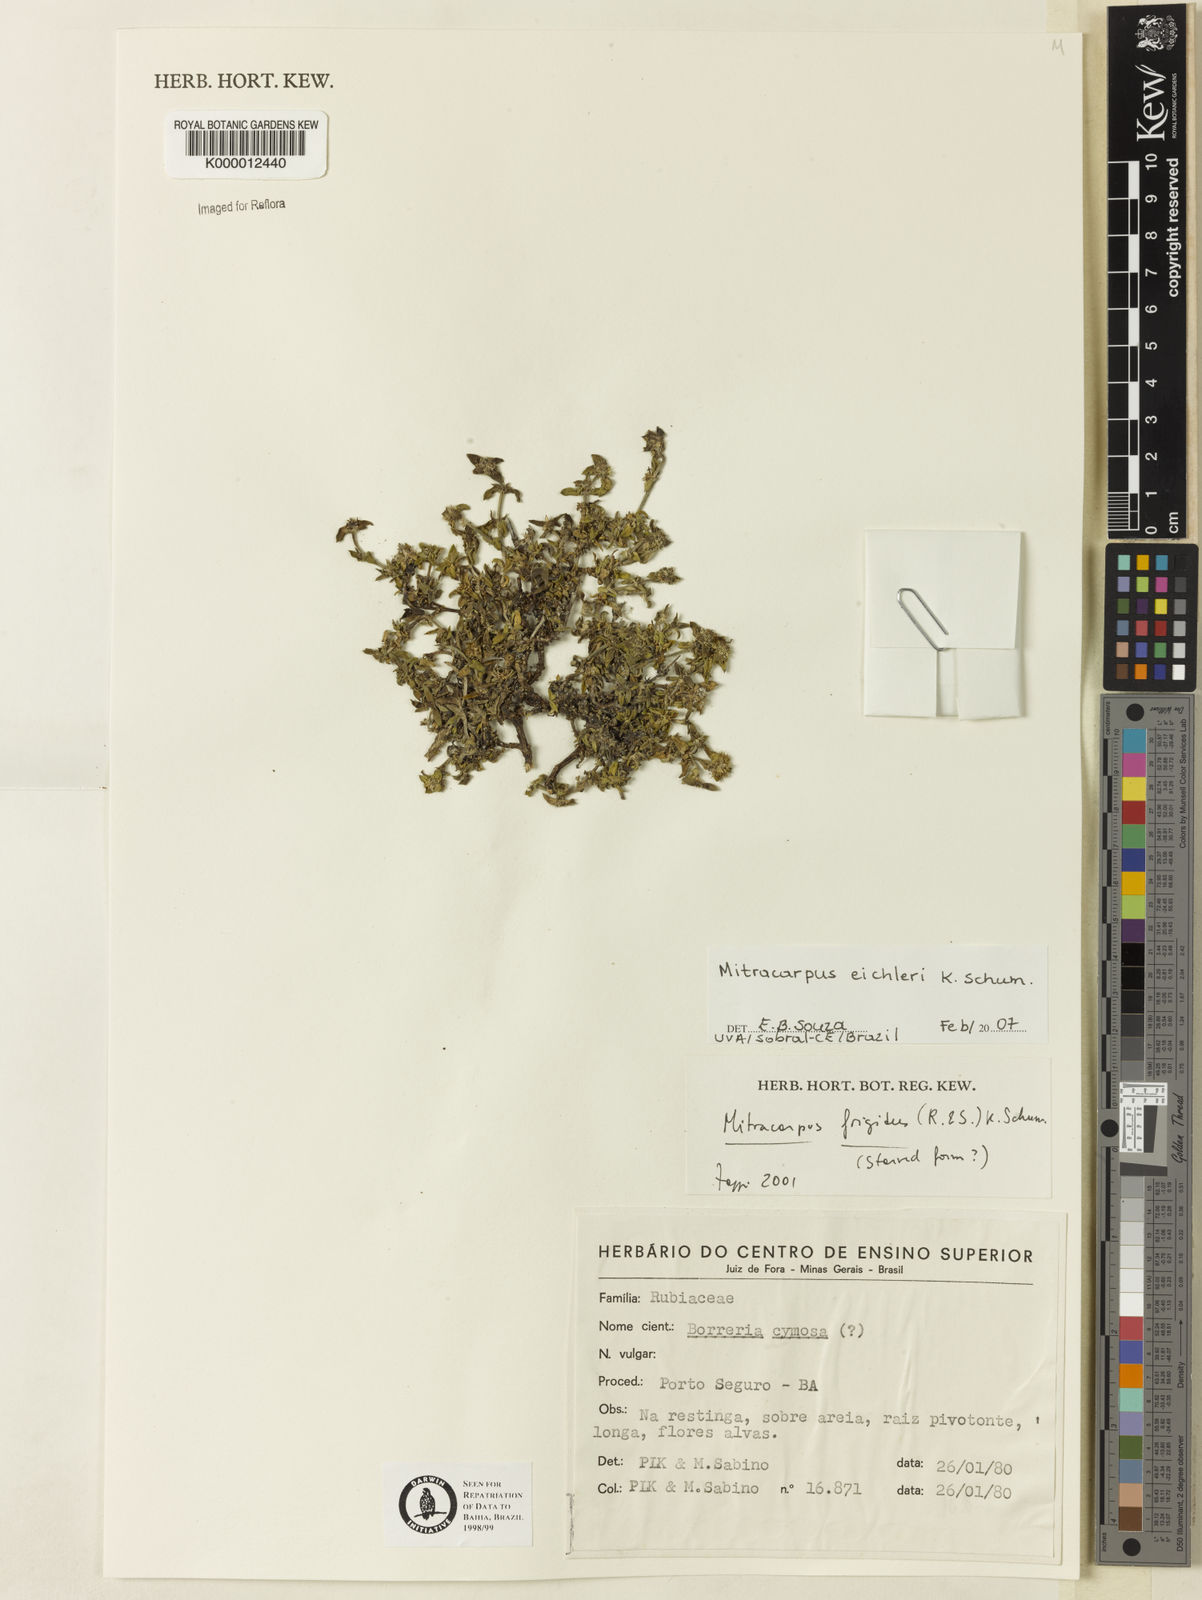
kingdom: Plantae
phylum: Tracheophyta
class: Magnoliopsida
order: Gentianales
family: Rubiaceae
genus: Mitracarpus
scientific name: Mitracarpus eichleri
